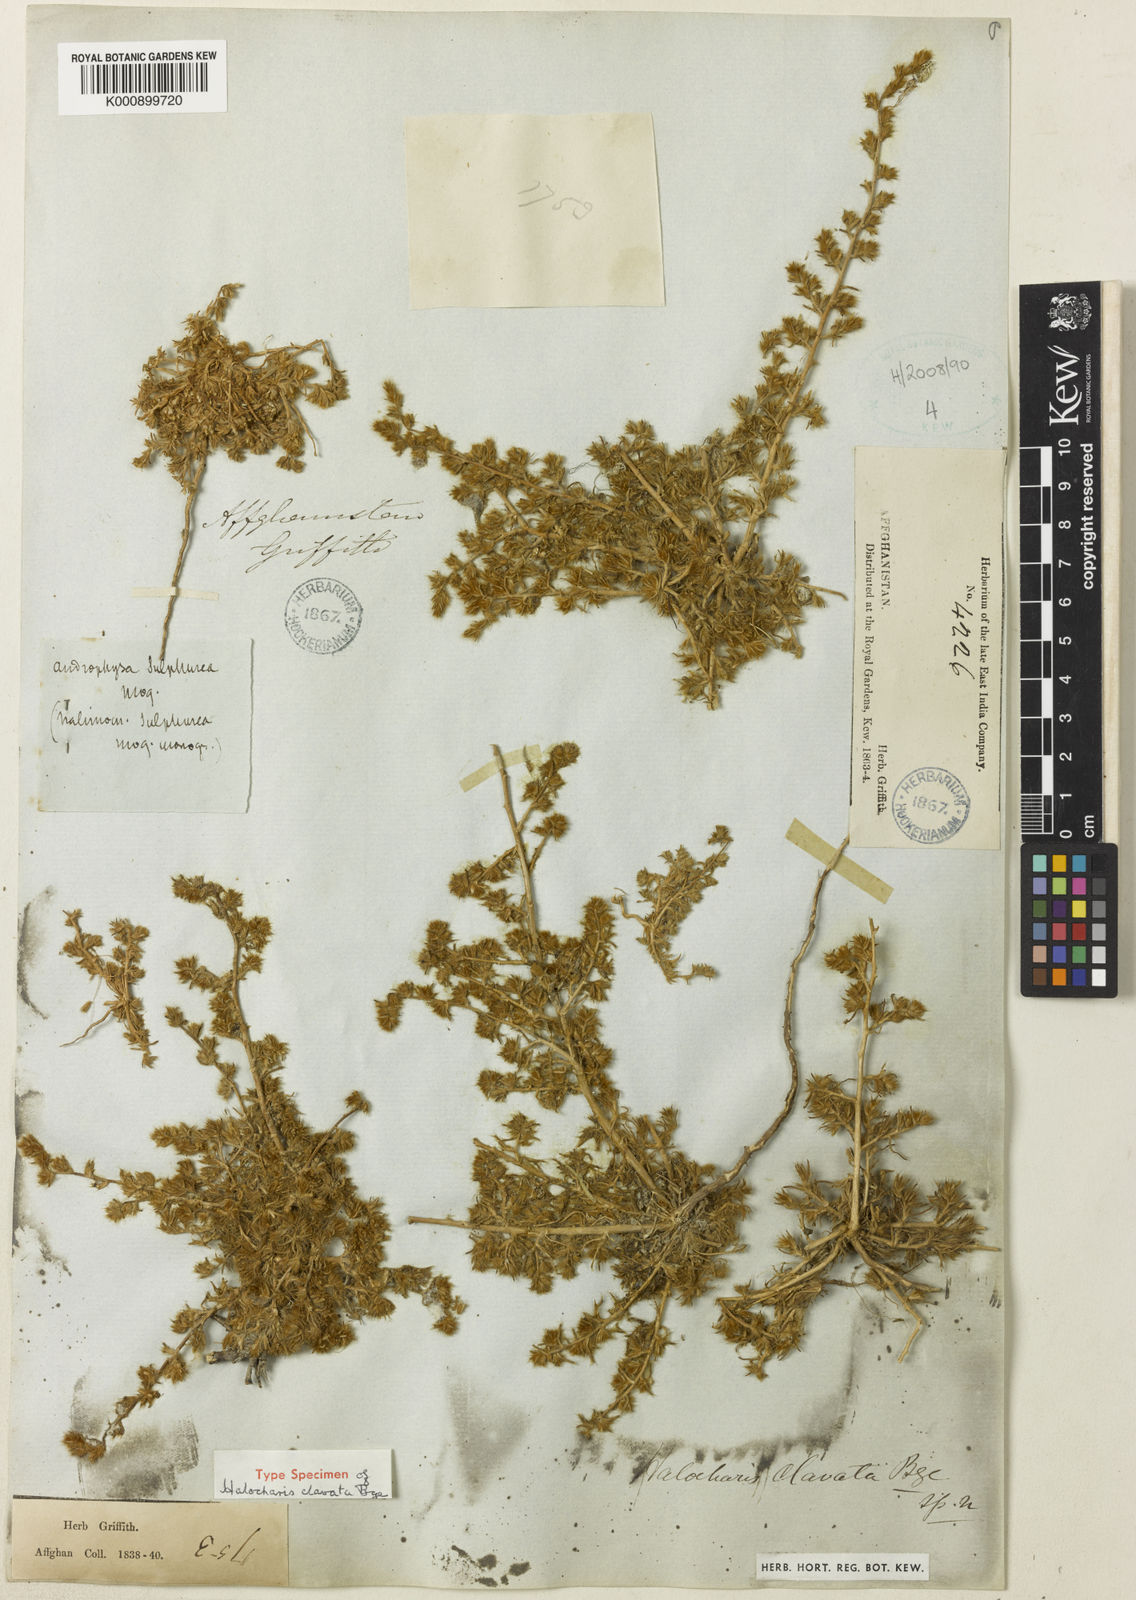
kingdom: Plantae
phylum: Tracheophyta
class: Magnoliopsida
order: Caryophyllales
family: Amaranthaceae
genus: Halocharis
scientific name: Halocharis clavata
